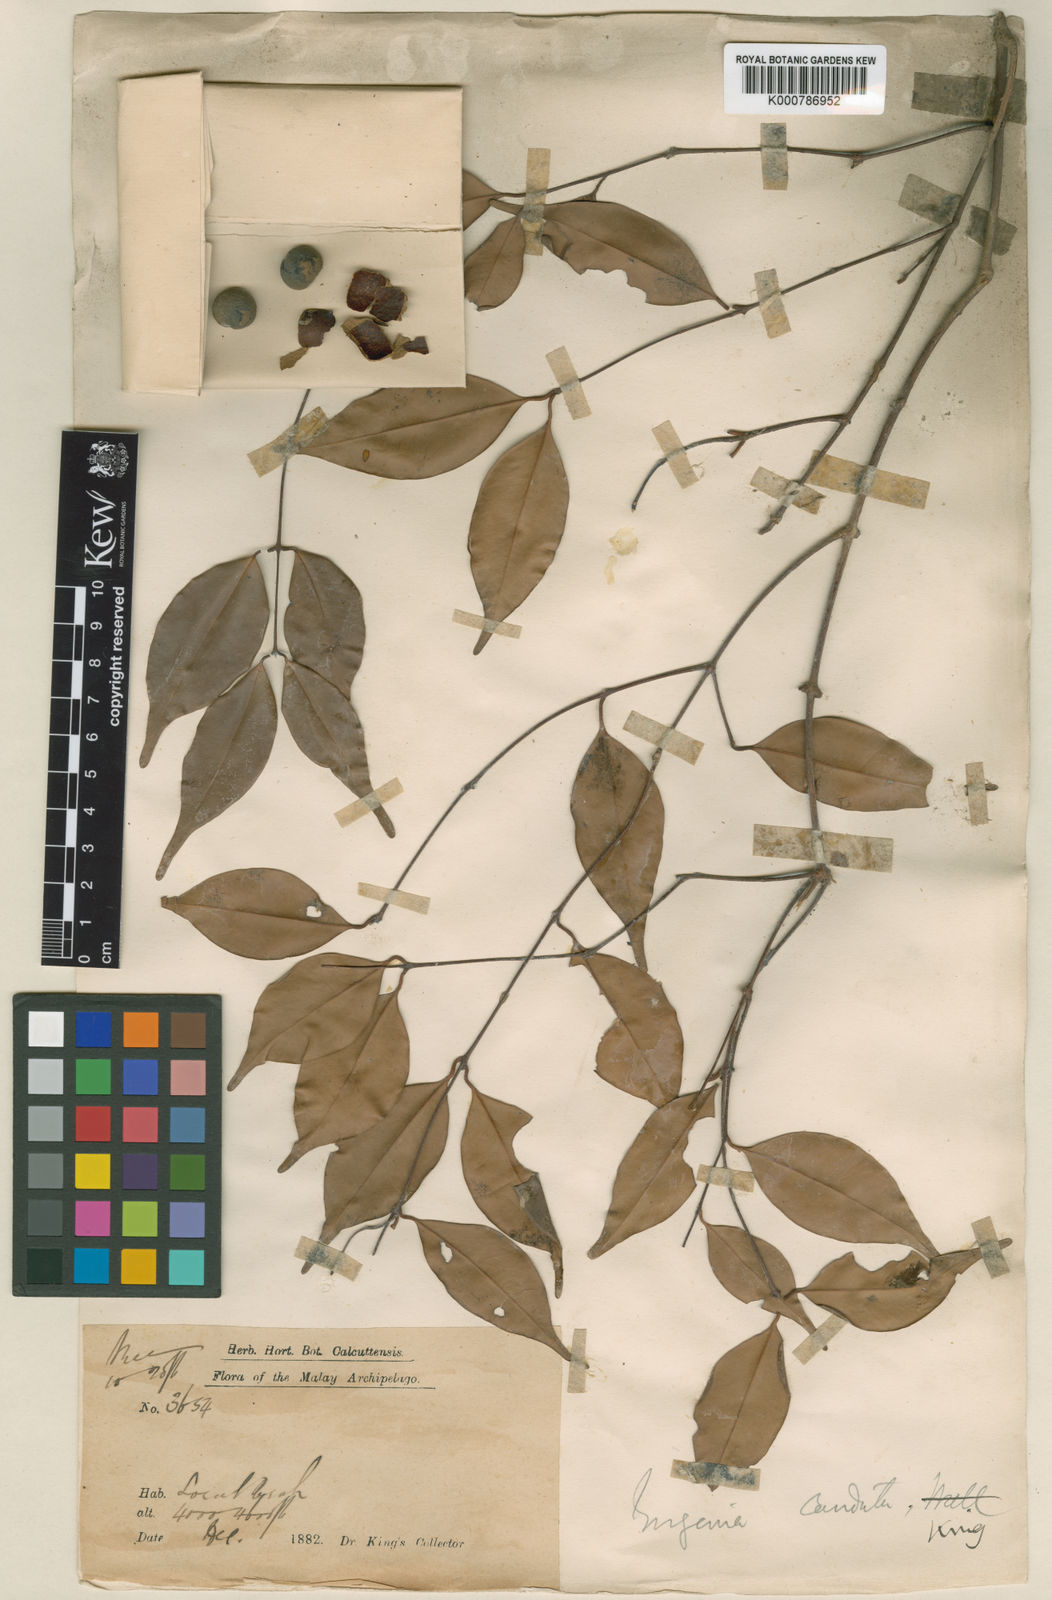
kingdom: Plantae
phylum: Tracheophyta
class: Magnoliopsida
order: Myrtales
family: Myrtaceae
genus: Syzygium
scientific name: Syzygium urophyllum
